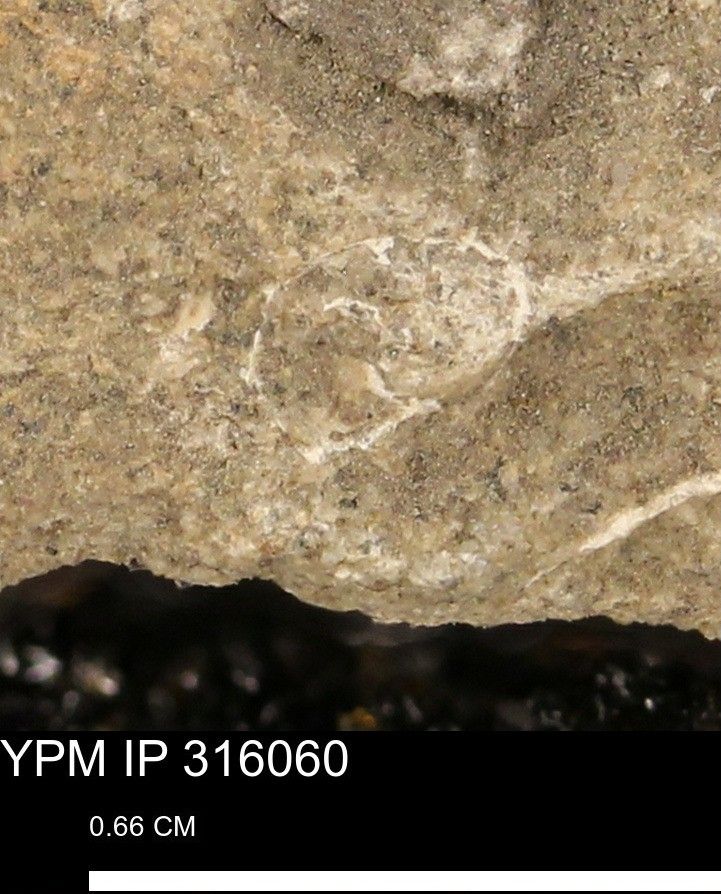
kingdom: Animalia
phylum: Mollusca
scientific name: Mollusca
